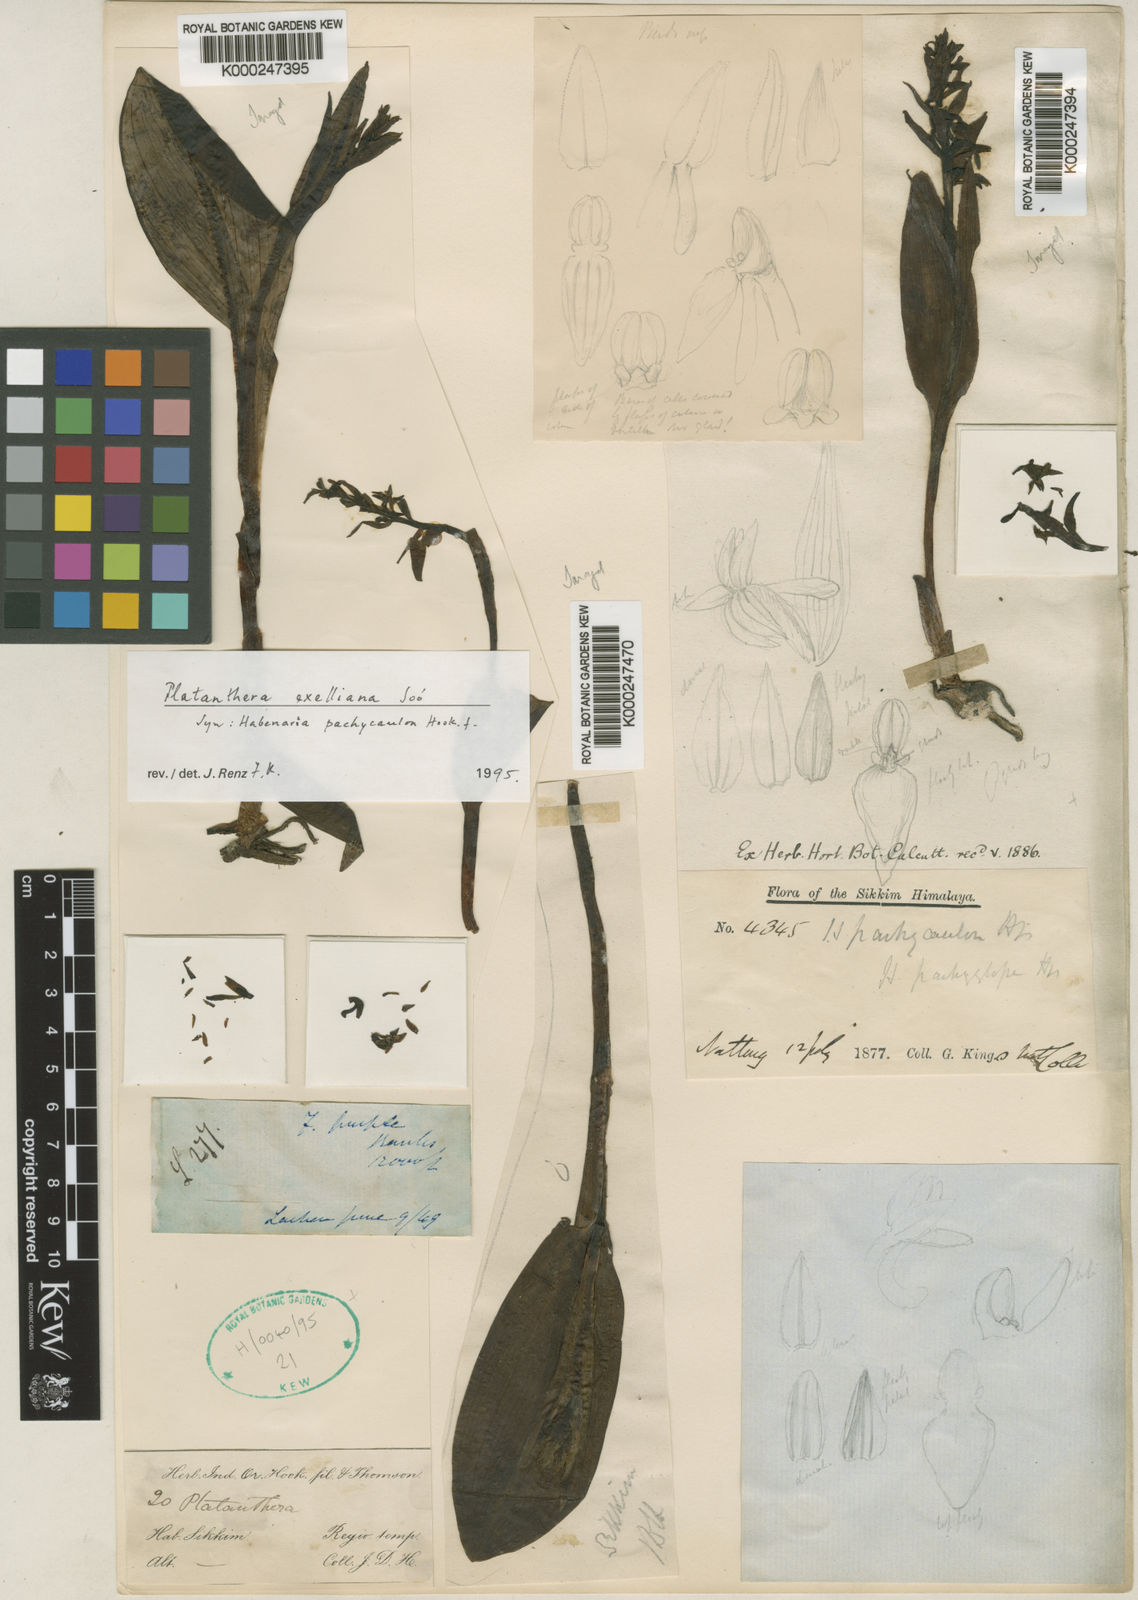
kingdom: Plantae
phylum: Tracheophyta
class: Liliopsida
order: Asparagales
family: Orchidaceae
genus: Platanthera
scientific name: Platanthera
